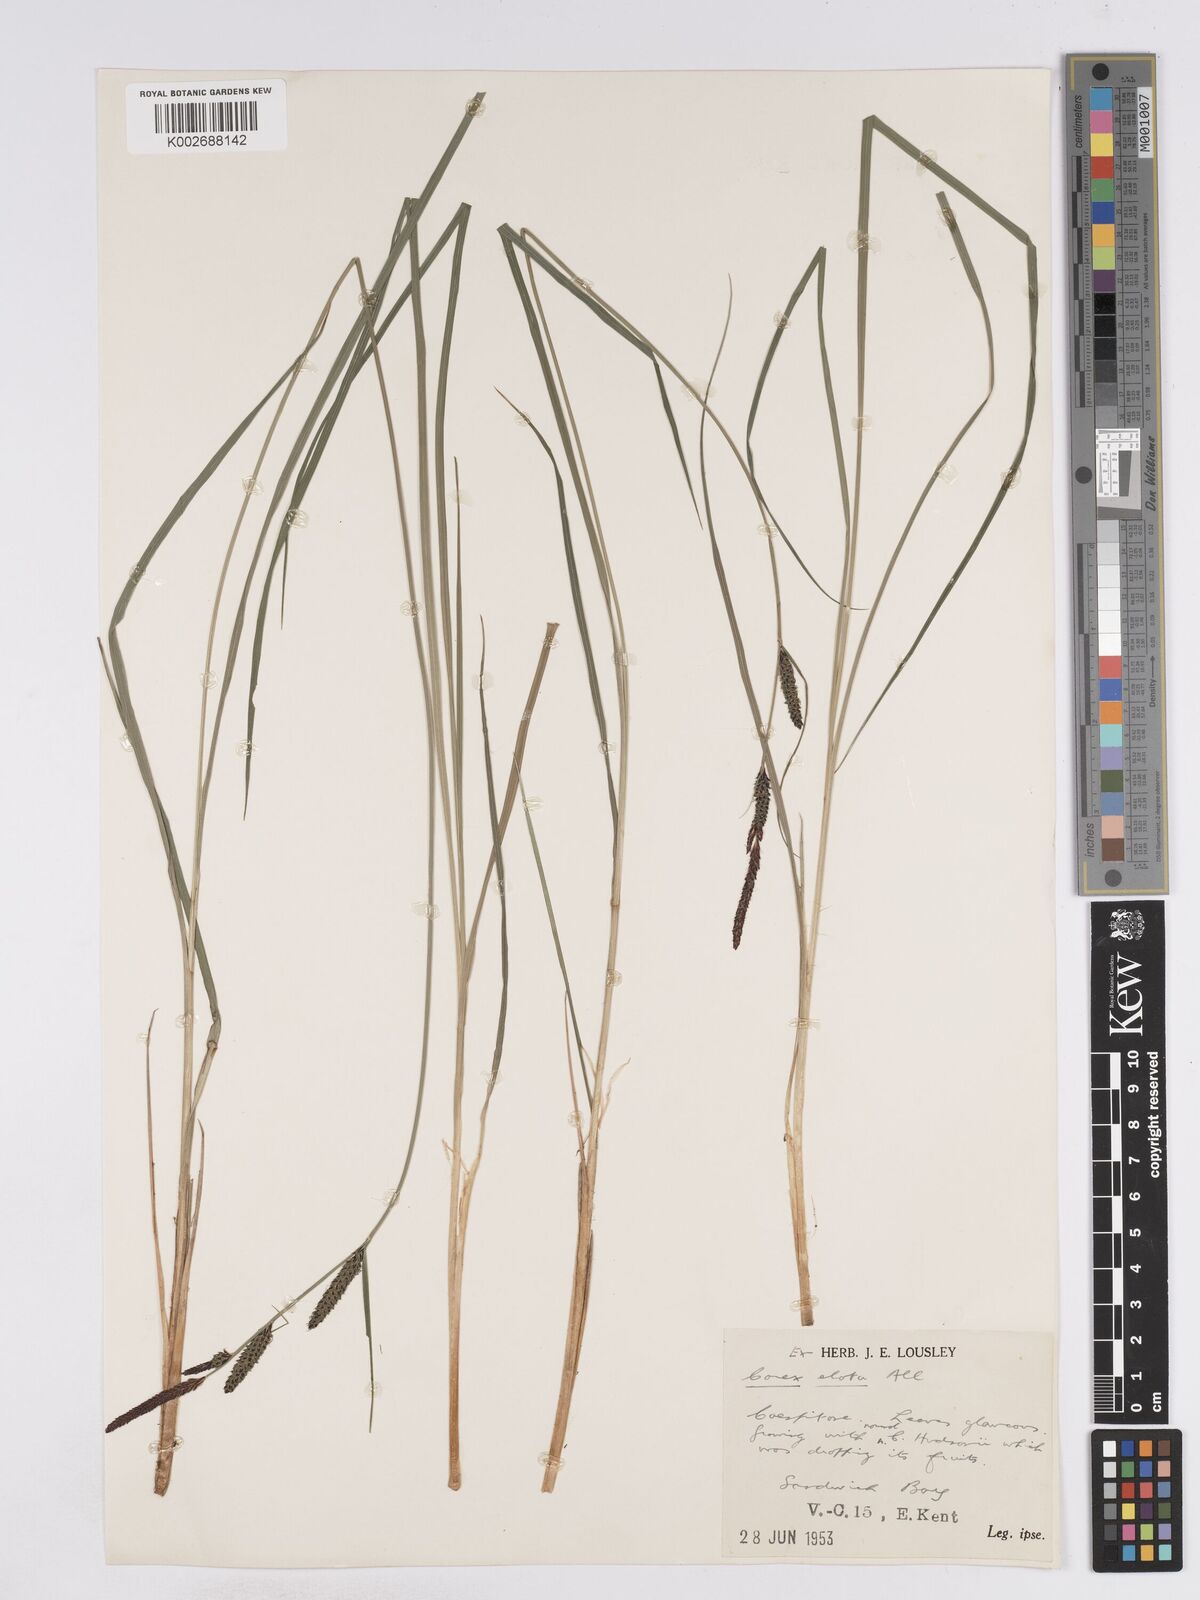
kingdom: Plantae
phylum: Tracheophyta
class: Liliopsida
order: Poales
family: Cyperaceae
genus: Carex
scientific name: Carex elata
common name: Tufted sedge
